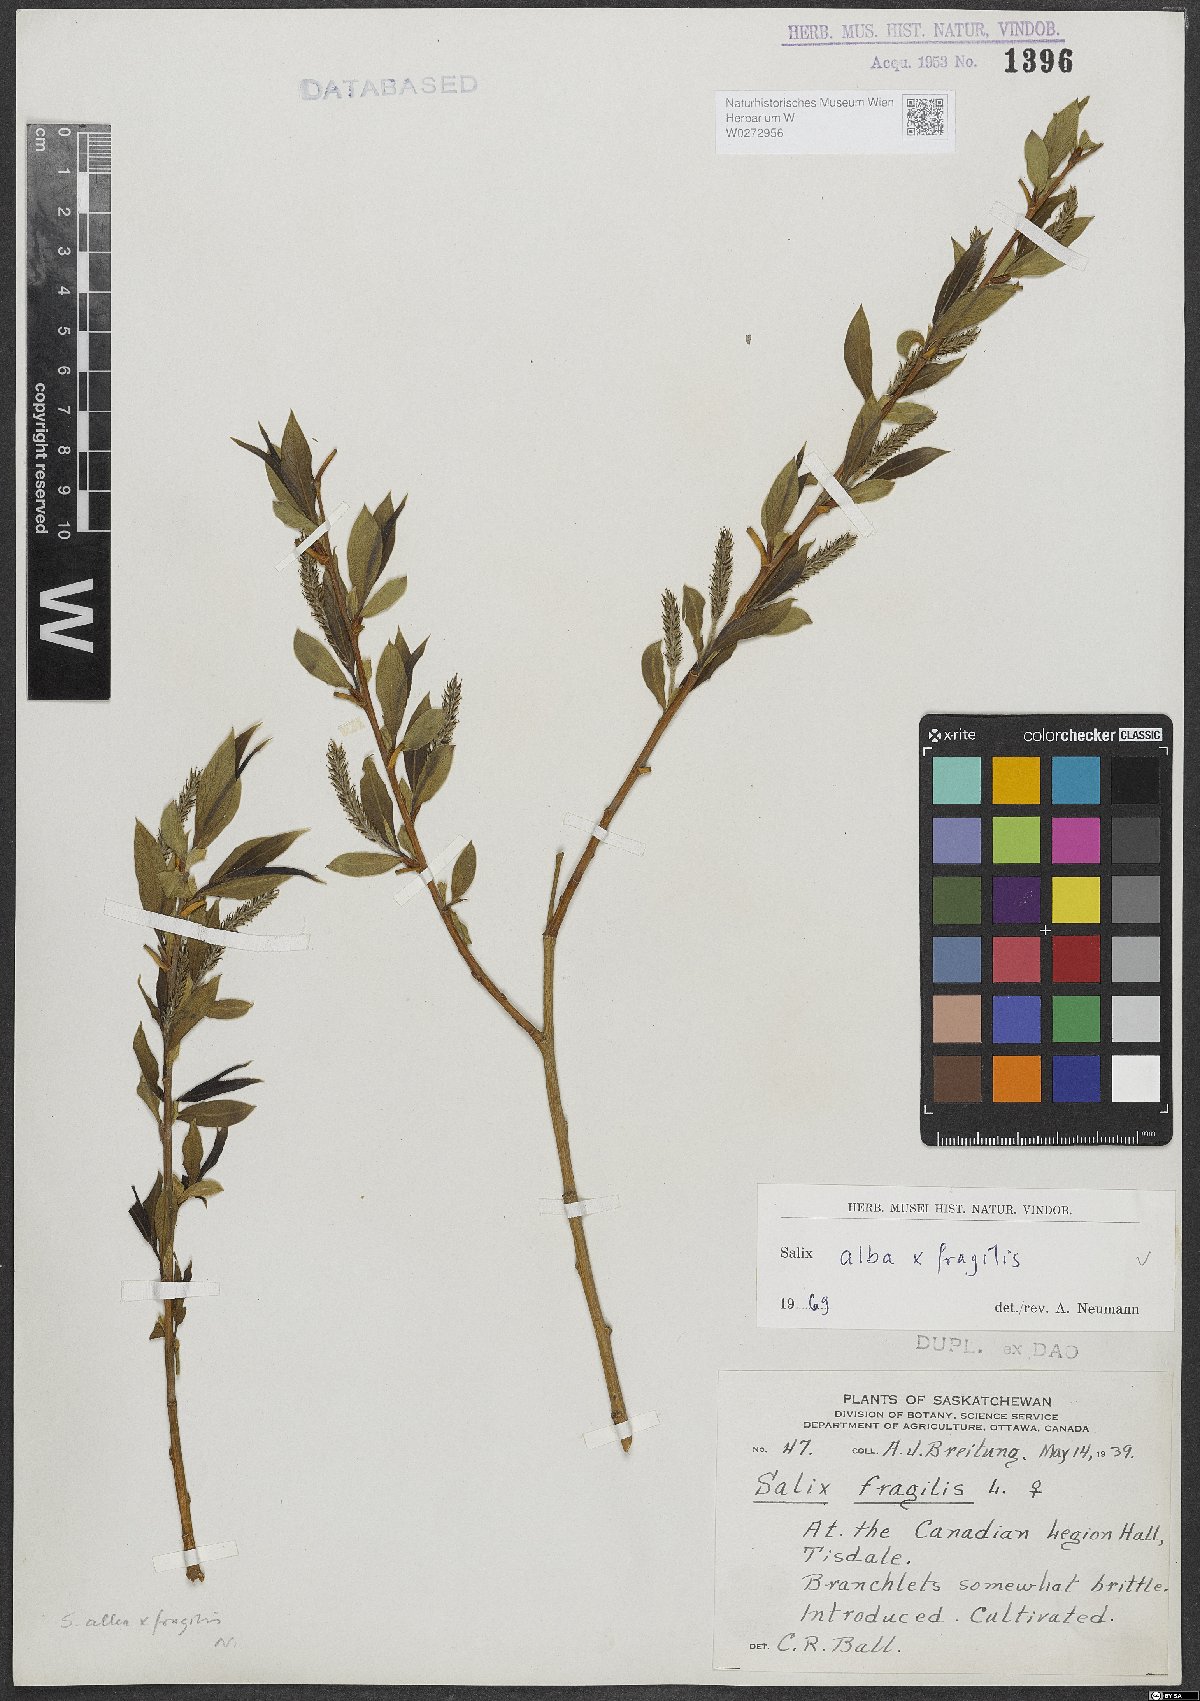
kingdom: Plantae
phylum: Tracheophyta
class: Magnoliopsida
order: Malpighiales
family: Salicaceae
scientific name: Salicaceae
